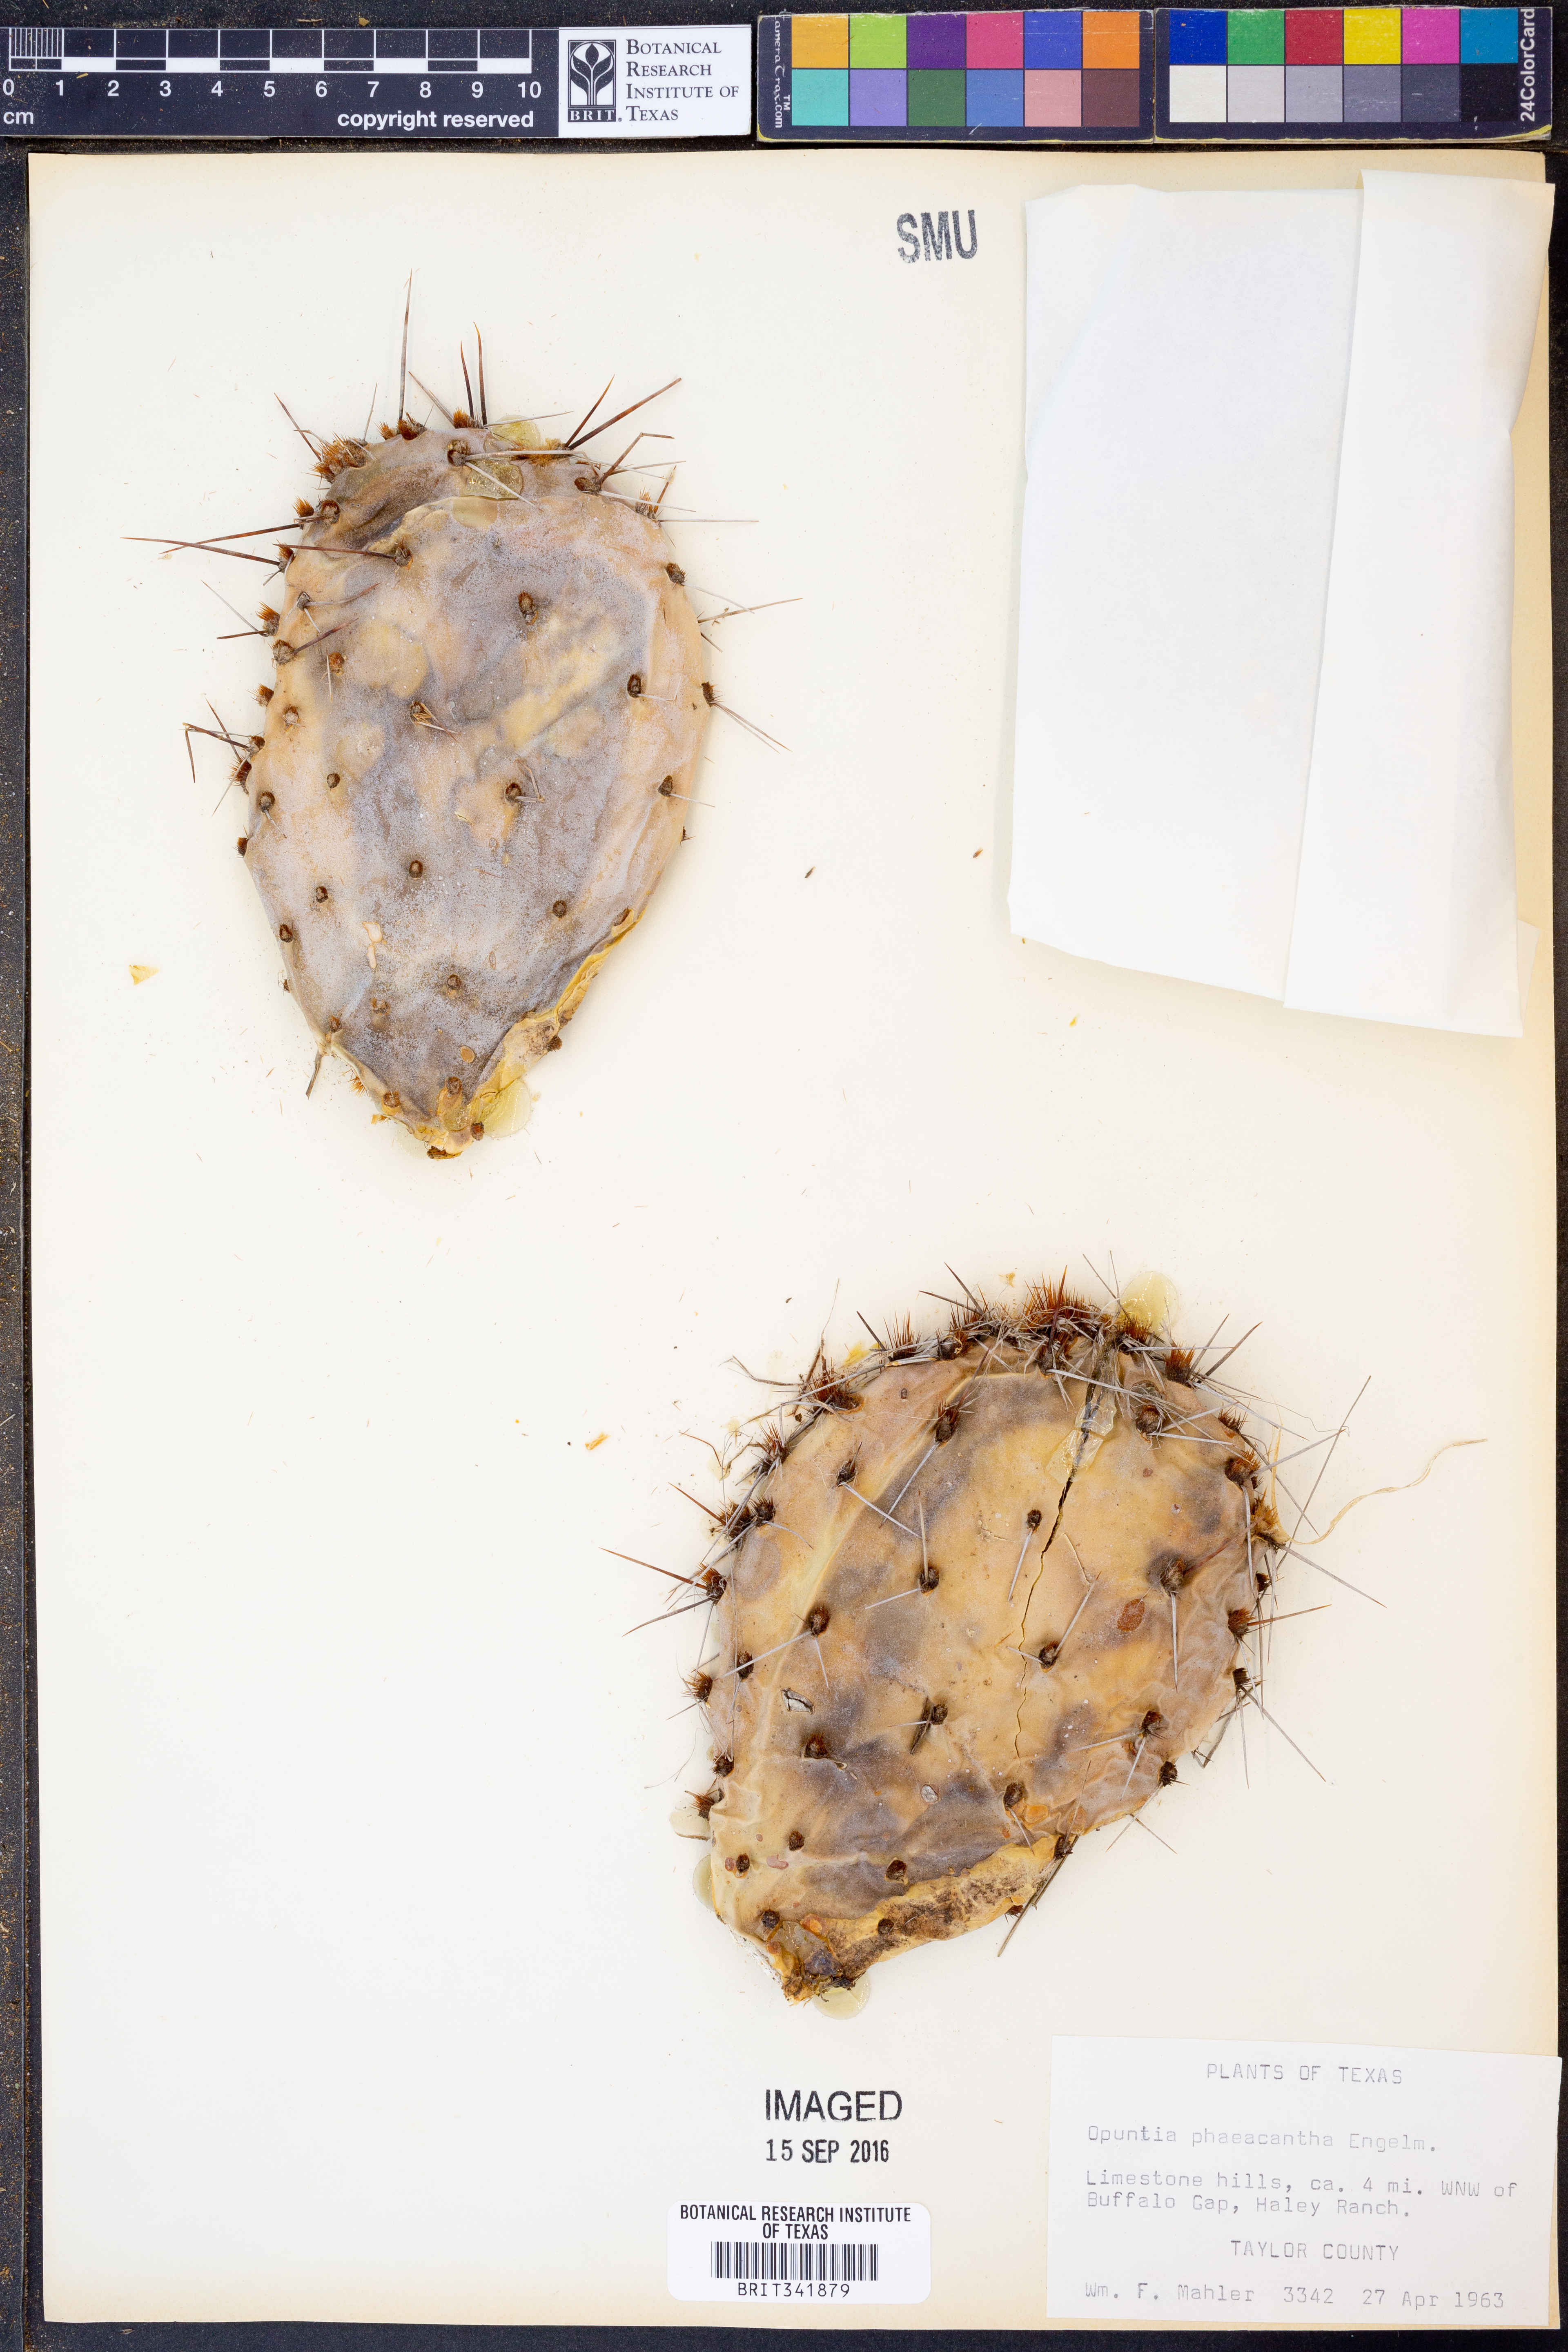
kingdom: Plantae
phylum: Tracheophyta
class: Magnoliopsida
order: Caryophyllales
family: Cactaceae
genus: Opuntia
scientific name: Opuntia phaeacantha
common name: New mexico prickly-pear
